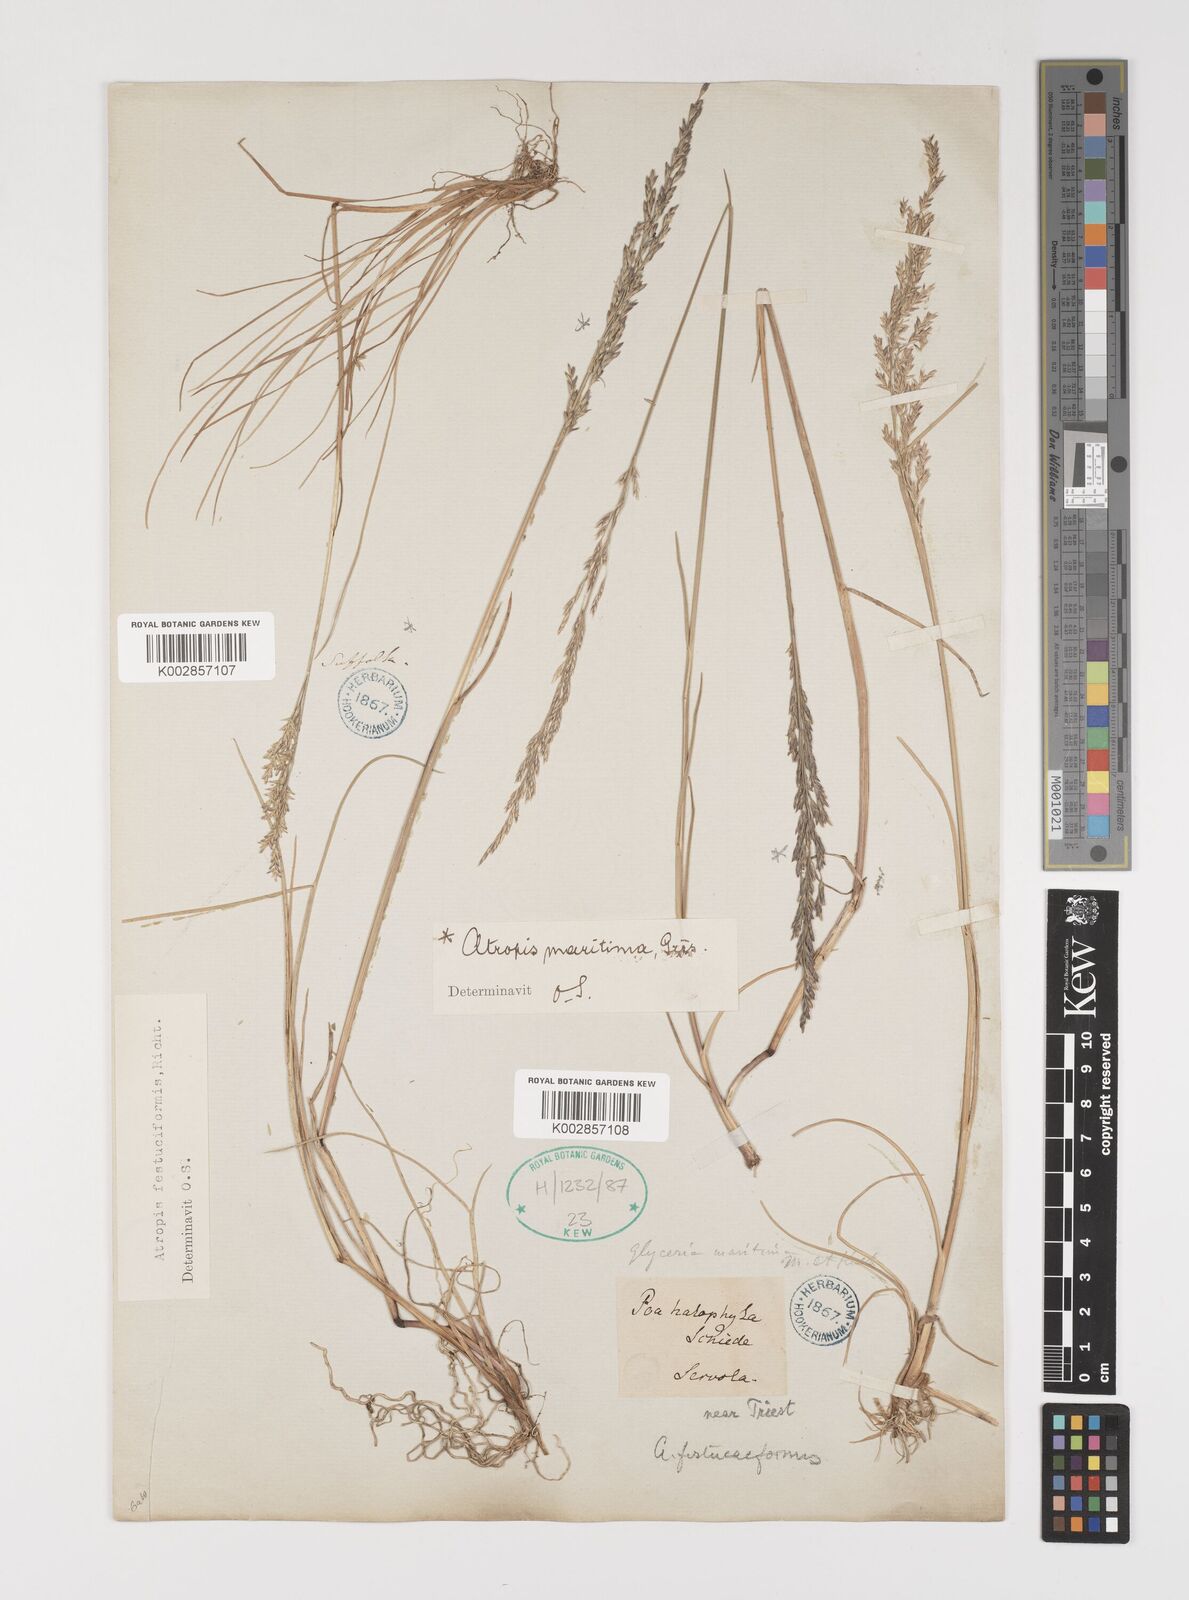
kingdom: Plantae
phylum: Tracheophyta
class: Liliopsida
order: Poales
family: Poaceae
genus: Puccinellia
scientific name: Puccinellia maritima
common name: Common saltmarsh grass
